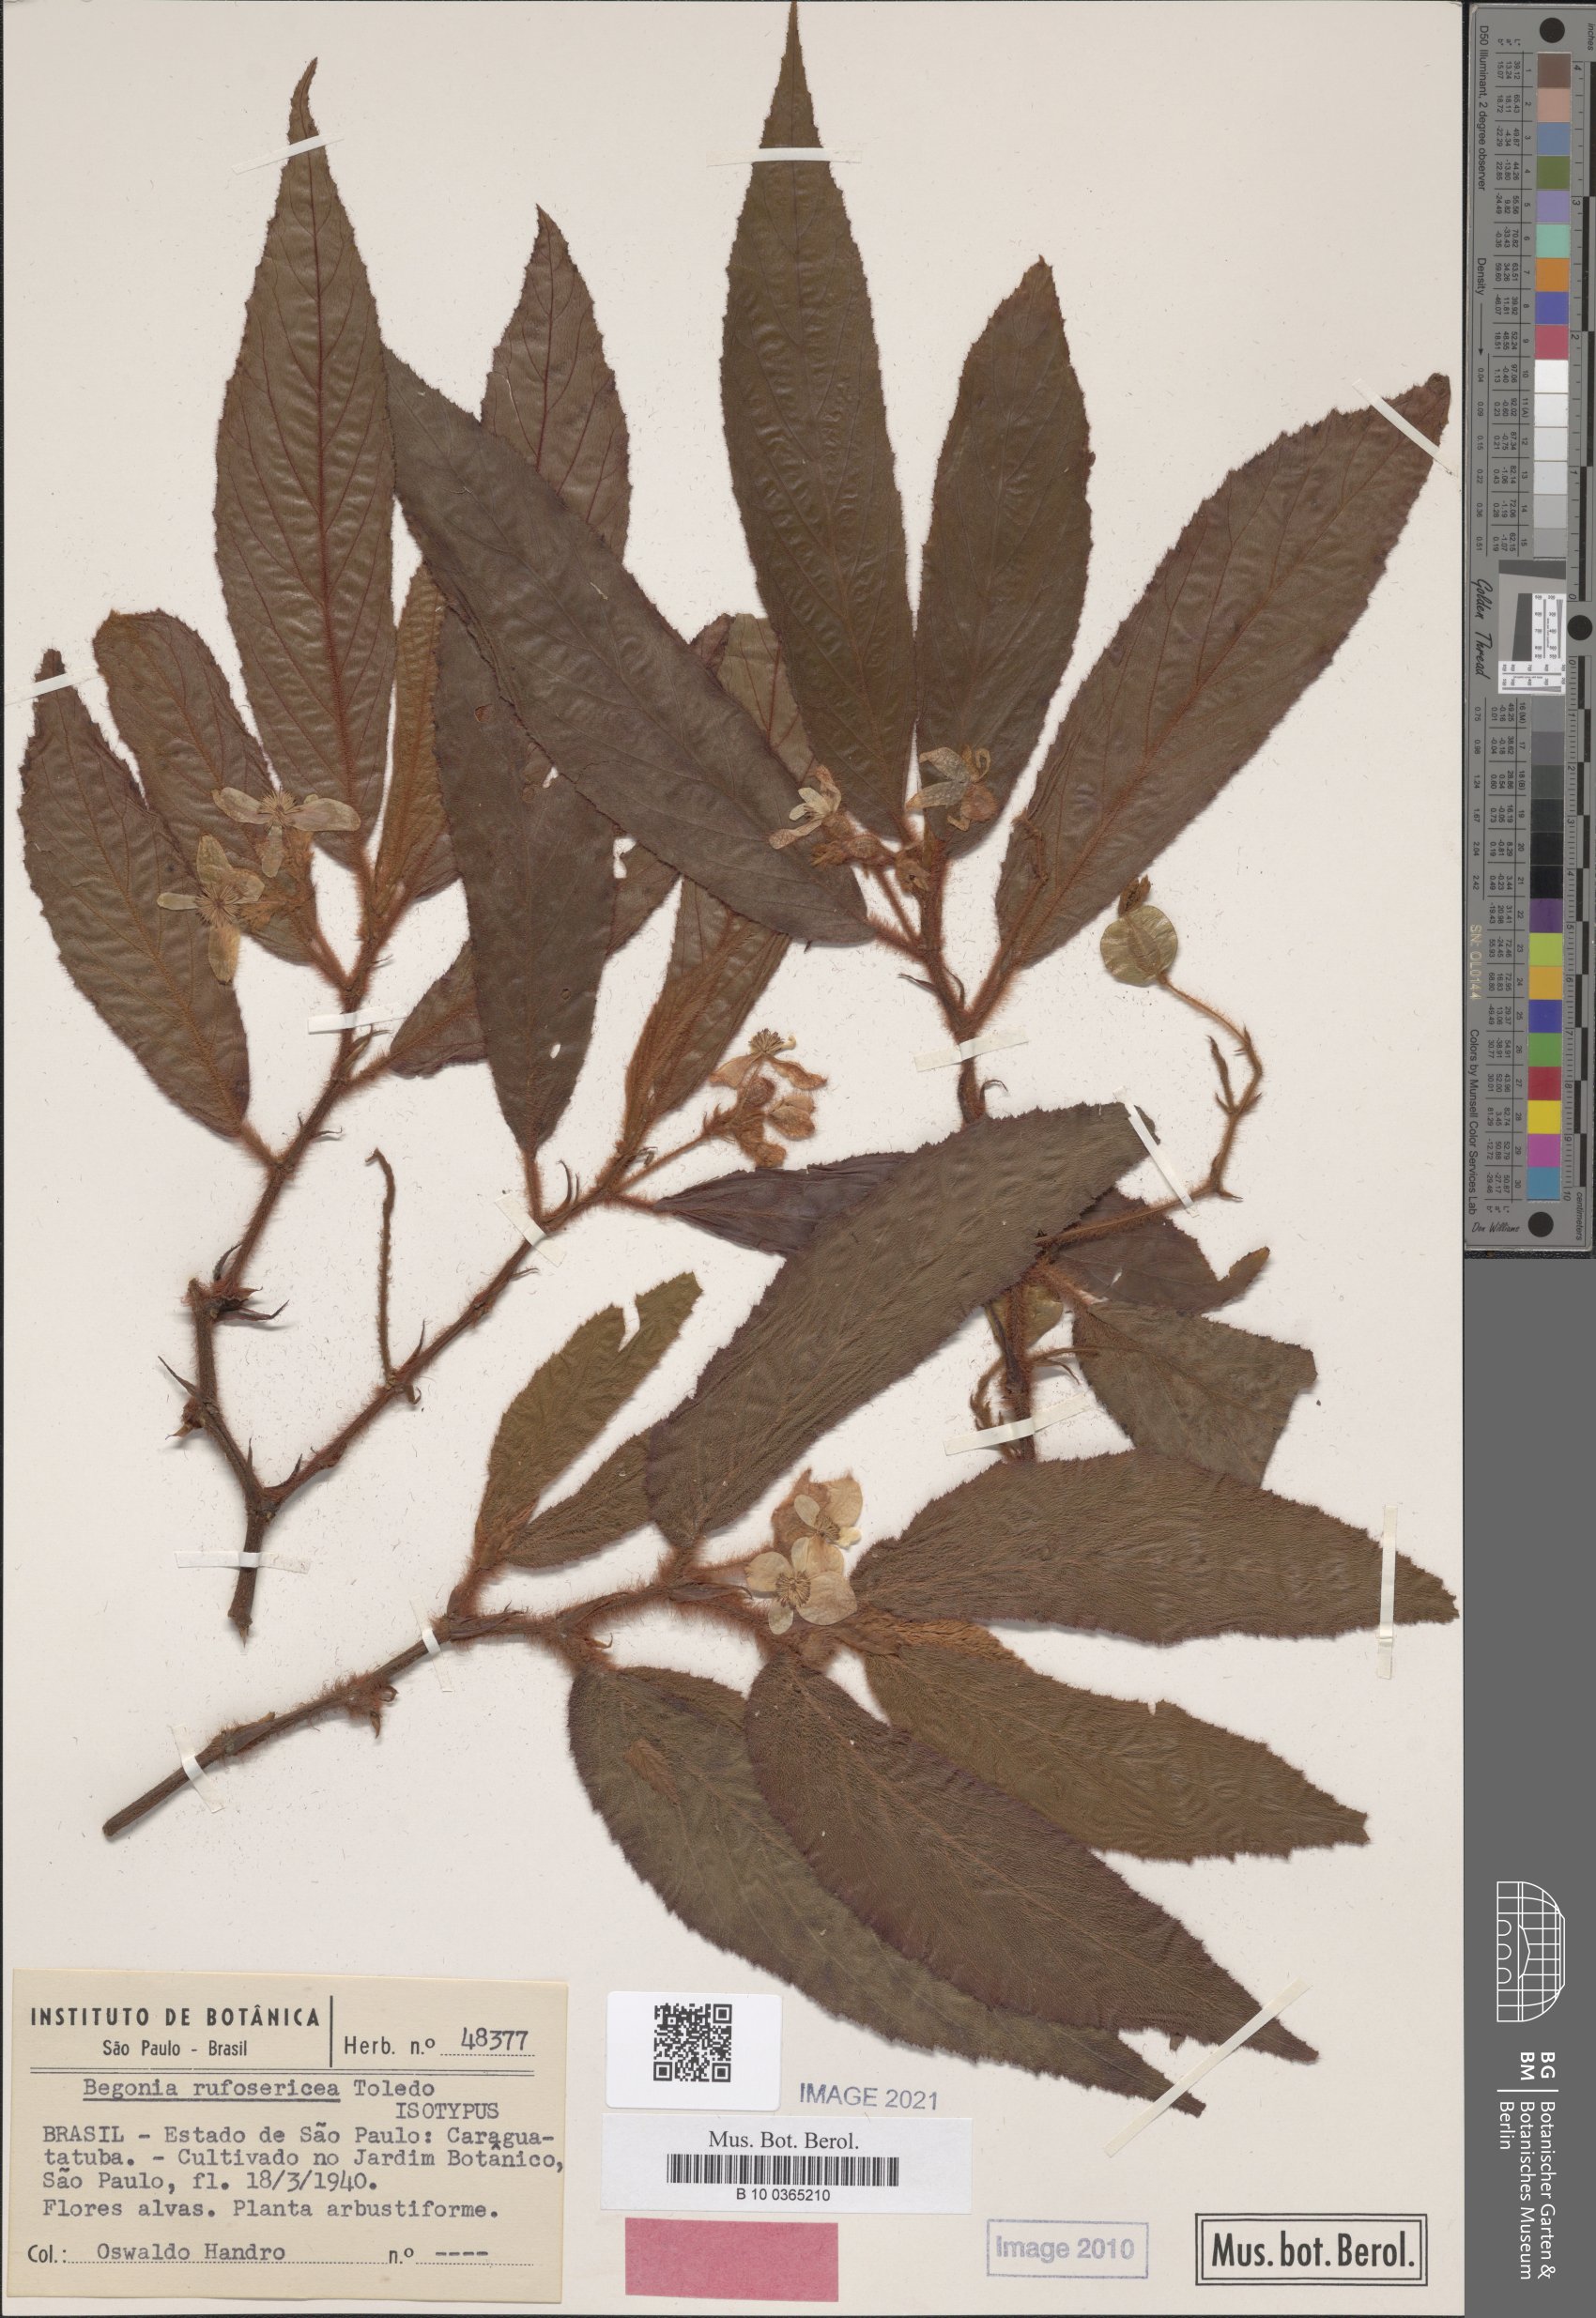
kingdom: Plantae
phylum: Tracheophyta
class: Magnoliopsida
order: Cucurbitales
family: Begoniaceae
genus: Begonia
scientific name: Begonia rufosericea
